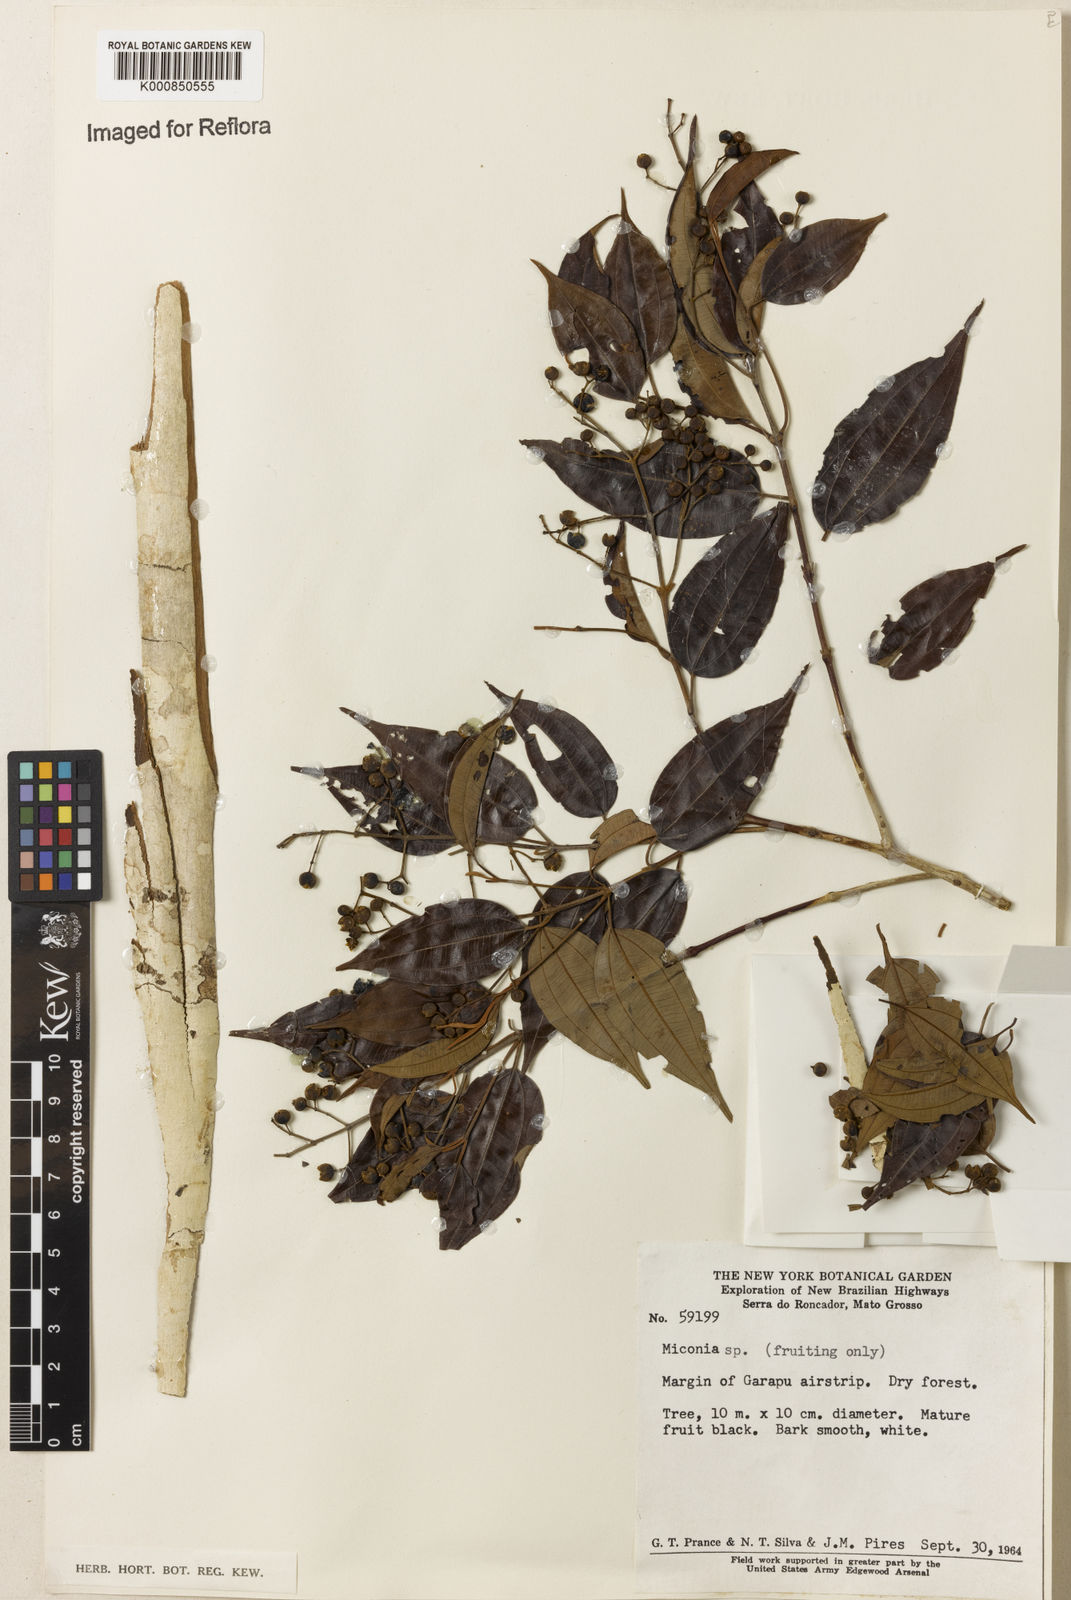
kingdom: Plantae
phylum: Tracheophyta
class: Magnoliopsida
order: Myrtales
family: Melastomataceae
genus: Miconia
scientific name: Miconia
